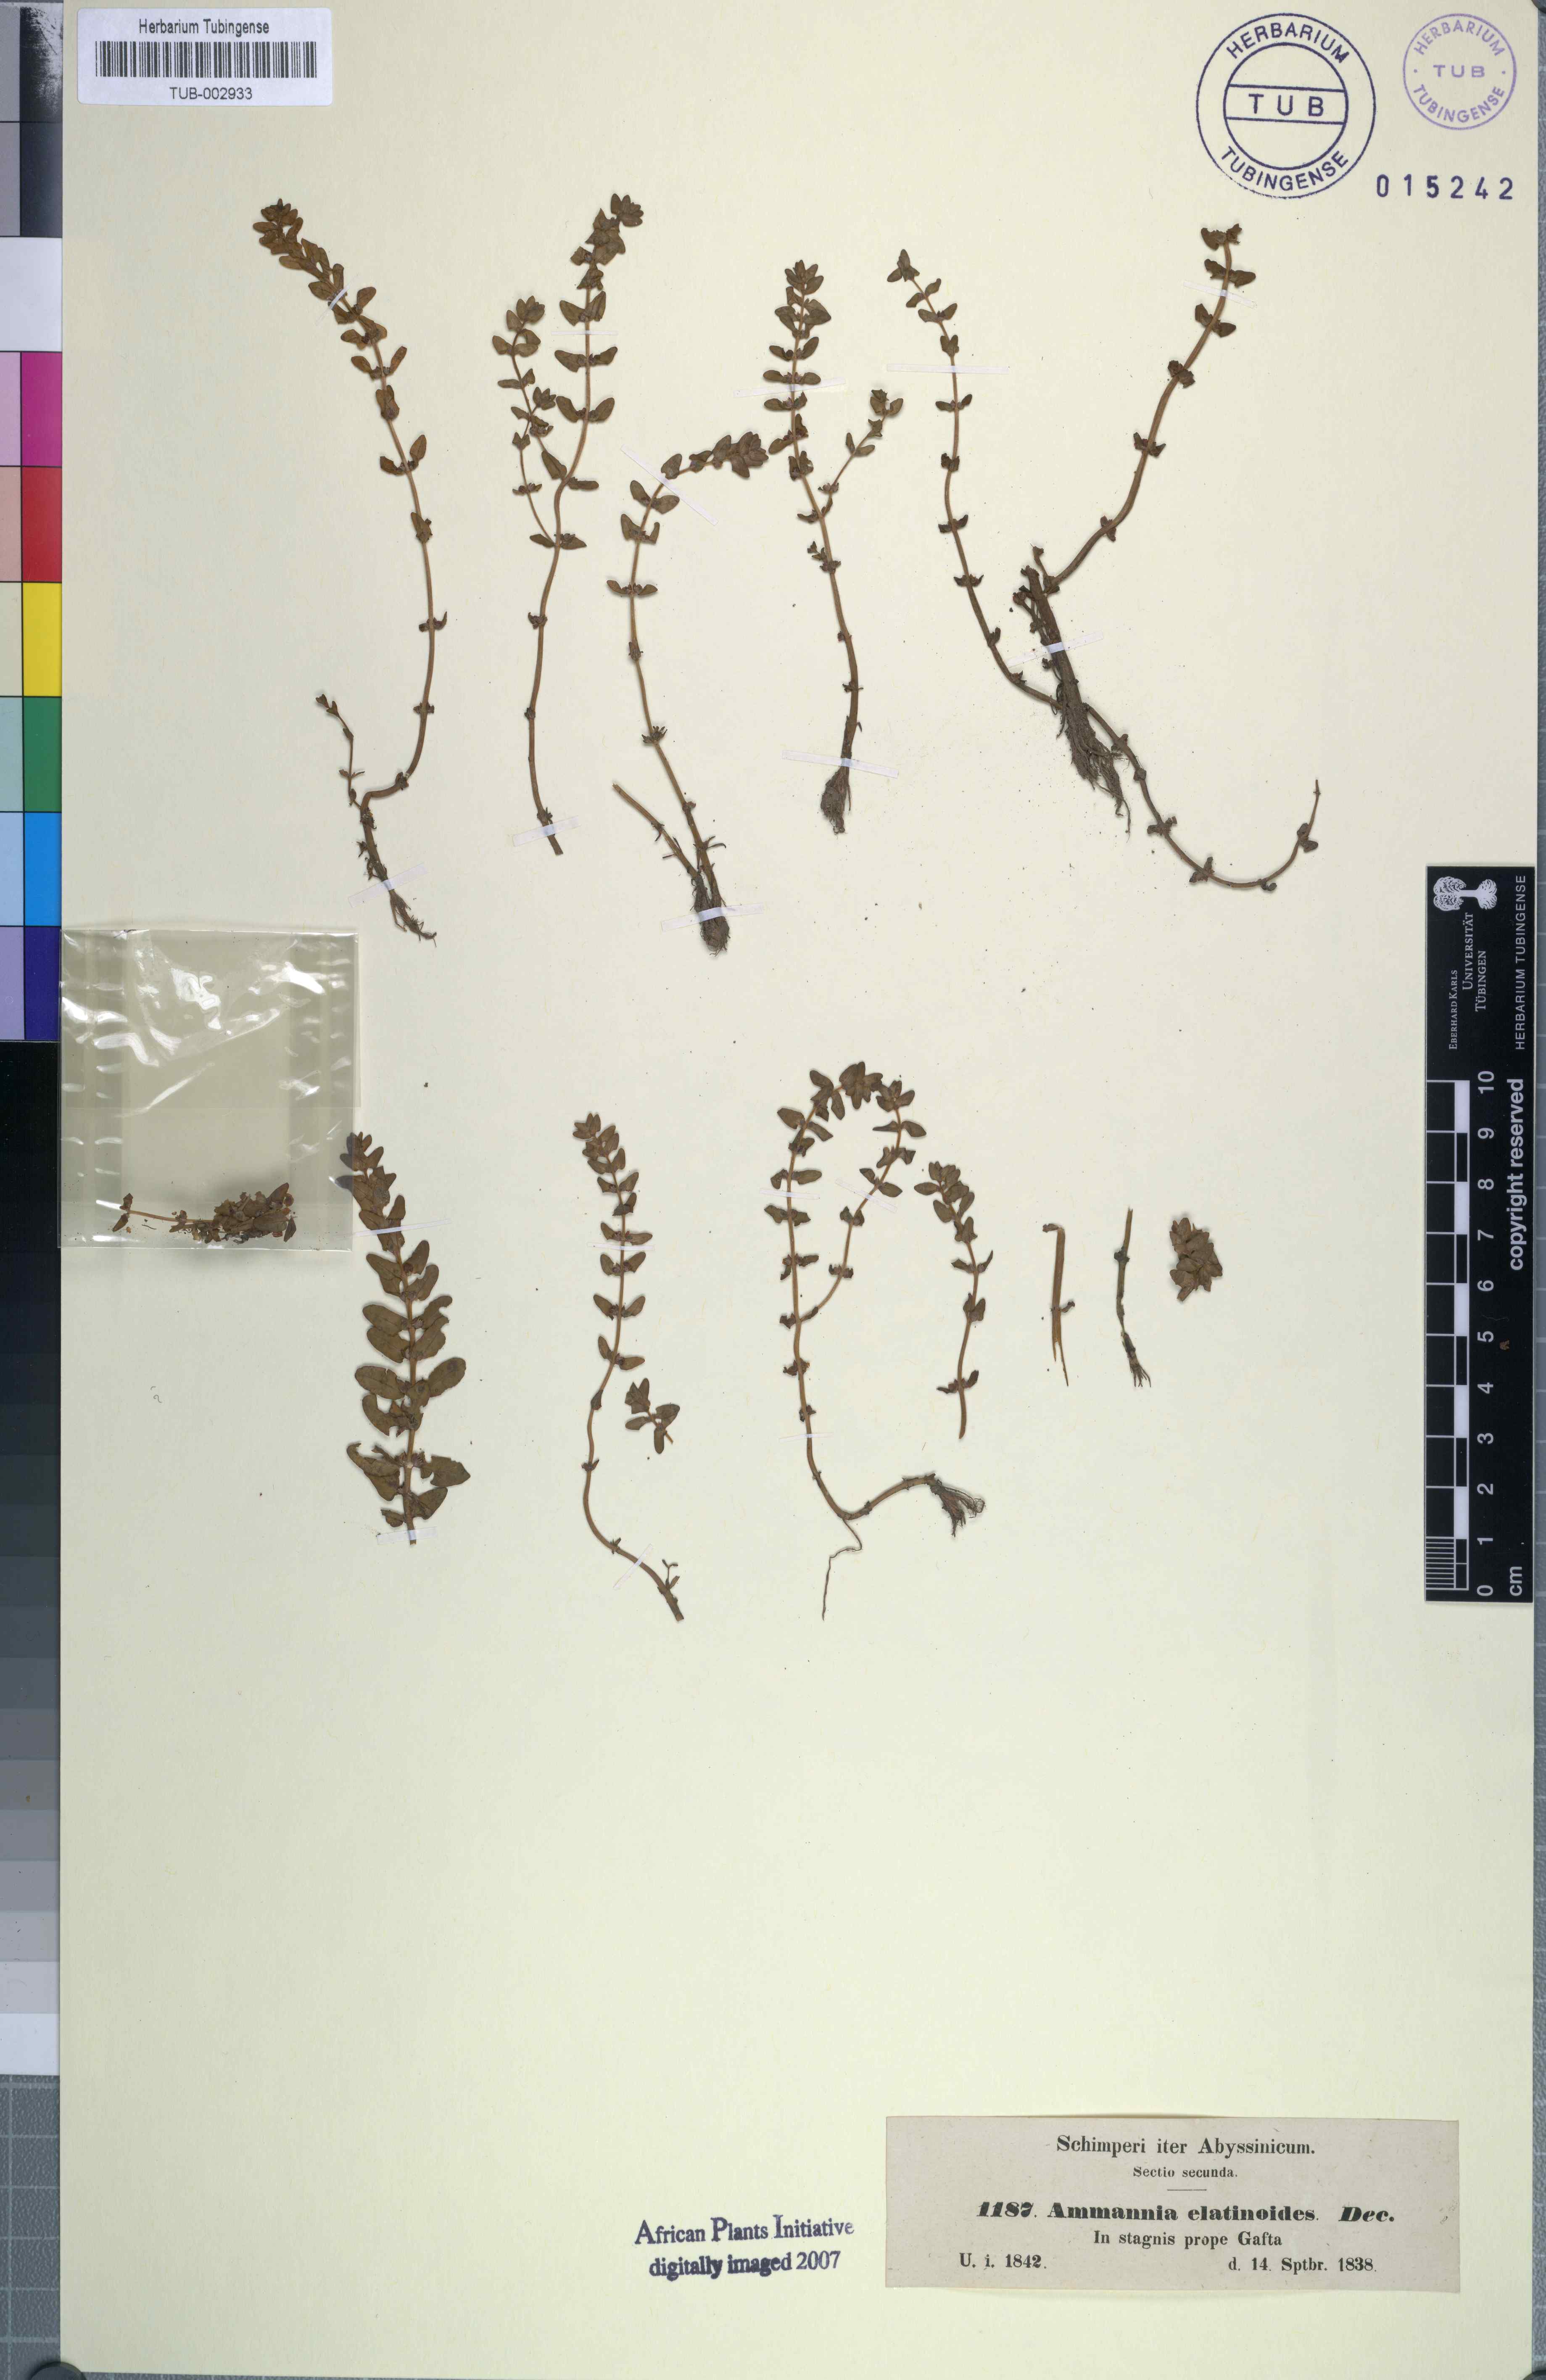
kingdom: Plantae
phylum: Tracheophyta
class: Magnoliopsida
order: Myrtales
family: Lythraceae
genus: Rotala
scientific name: Rotala elatinoides
